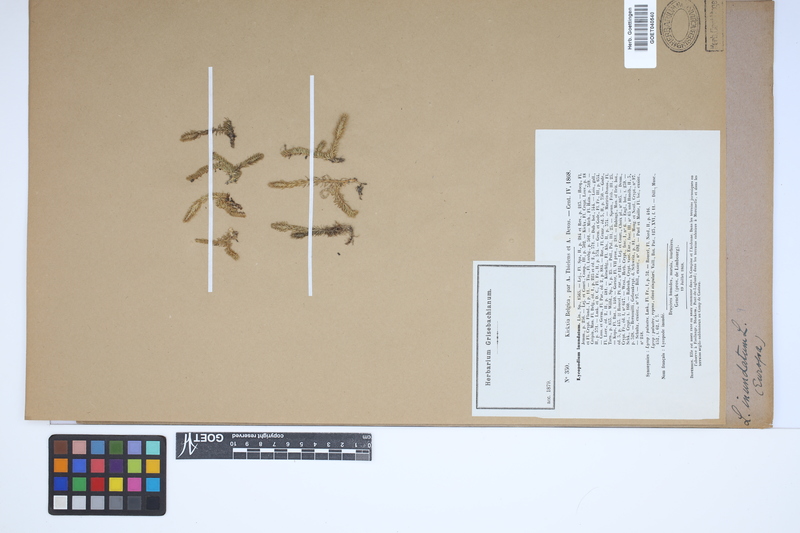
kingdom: Plantae
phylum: Tracheophyta
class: Lycopodiopsida
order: Lycopodiales
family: Lycopodiaceae
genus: Lycopodiella
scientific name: Lycopodiella inundata
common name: Marsh clubmoss
